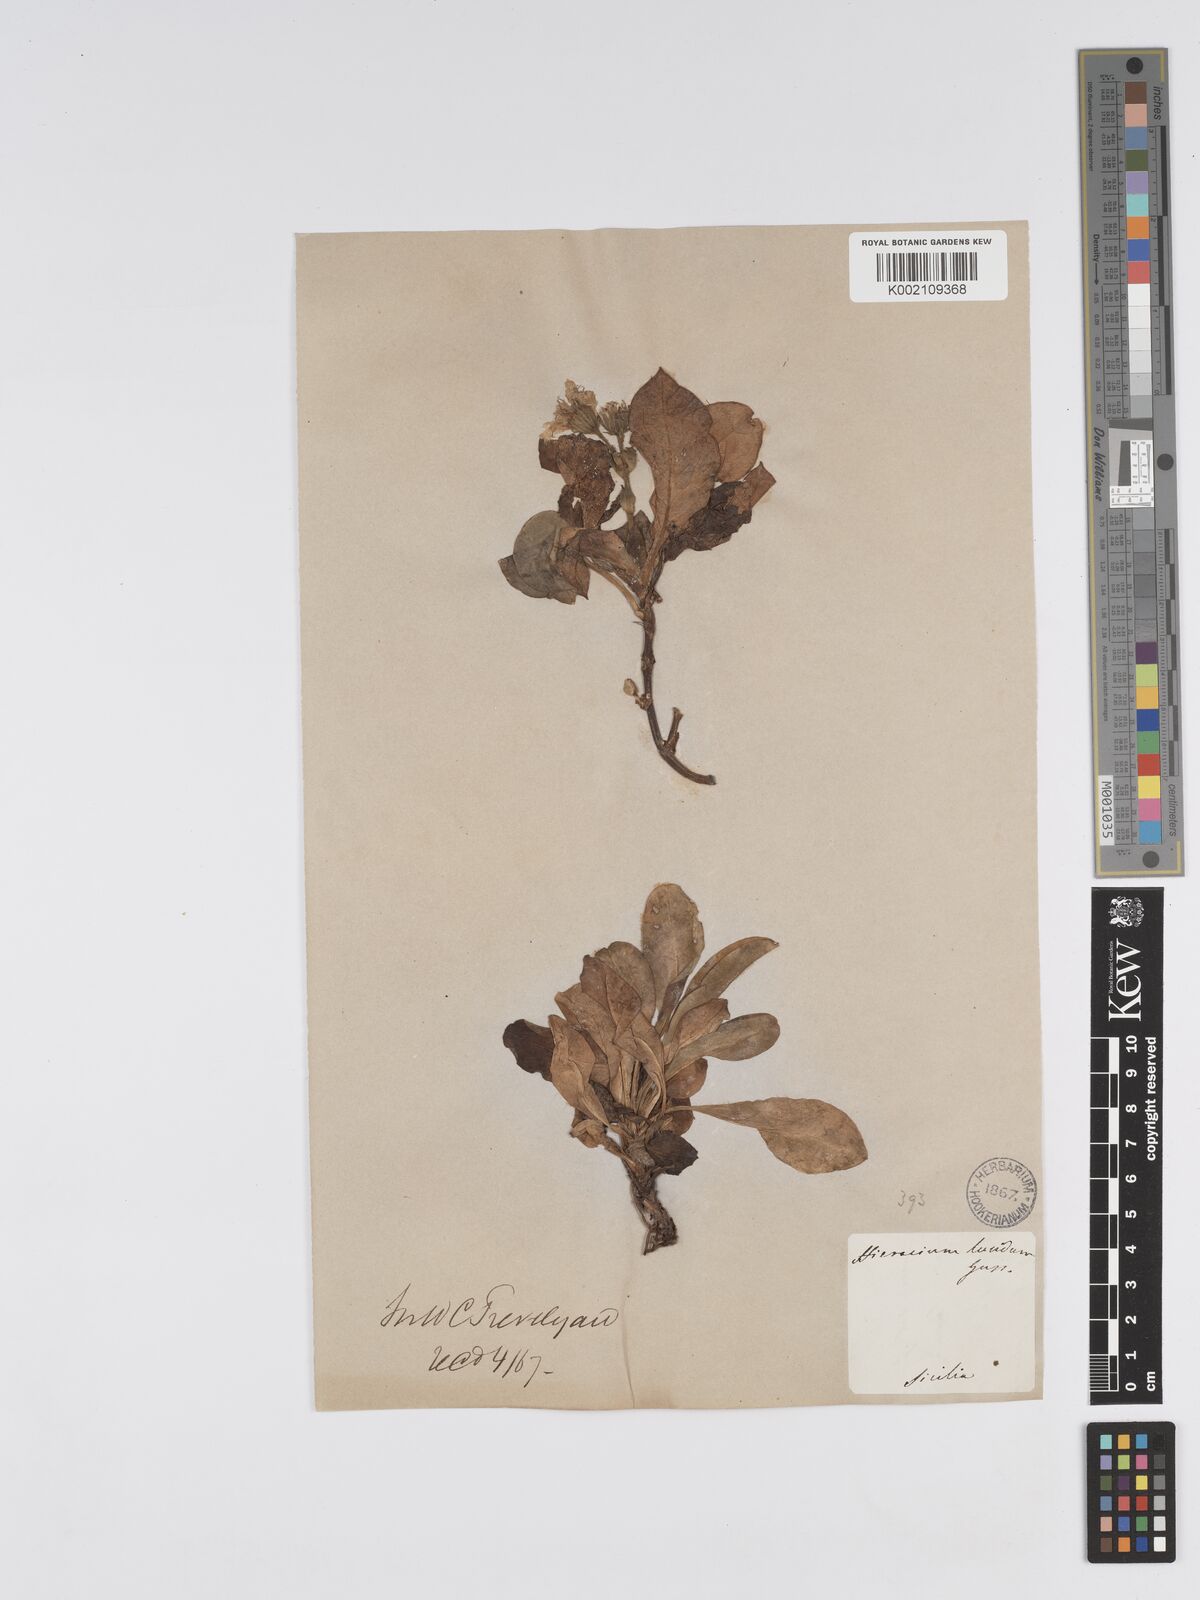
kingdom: Plantae
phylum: Tracheophyta
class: Magnoliopsida
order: Asterales
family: Asteraceae
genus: Hieracium
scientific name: Hieracium lucidum
